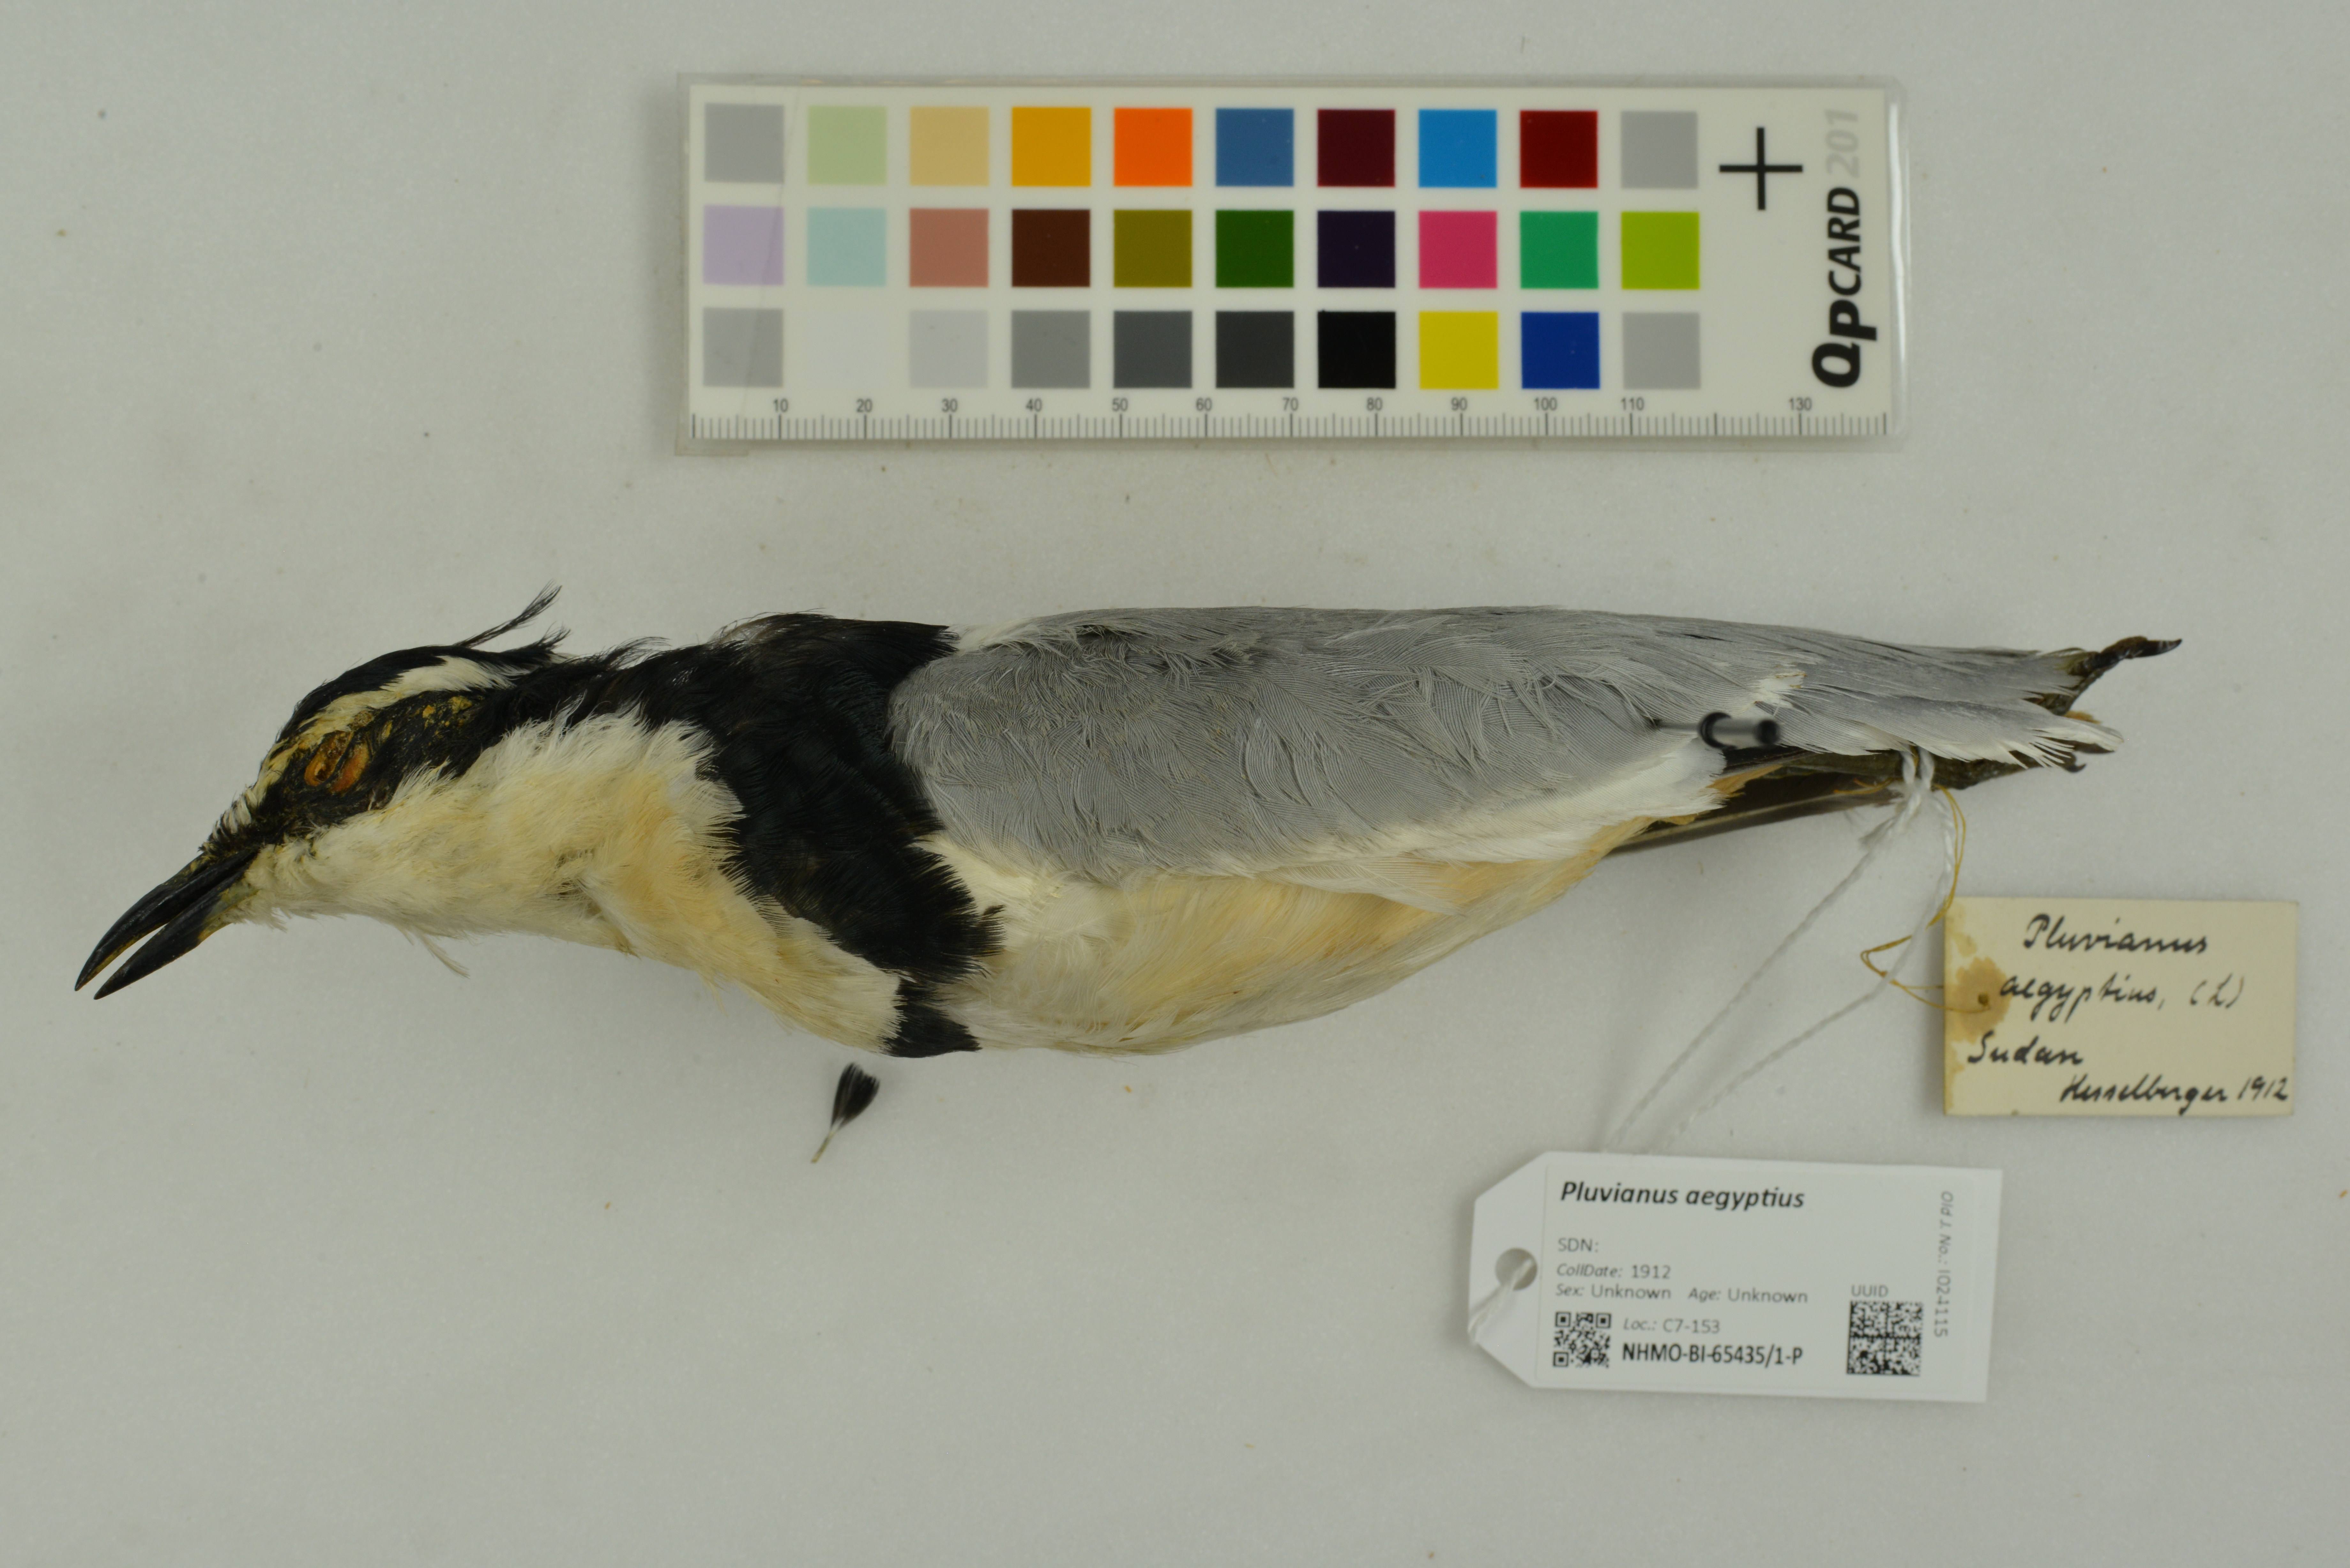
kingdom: Animalia
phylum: Chordata
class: Aves
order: Charadriiformes
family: Pluvianidae
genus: Pluvianus
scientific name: Pluvianus aegyptius
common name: Egyptian plover
